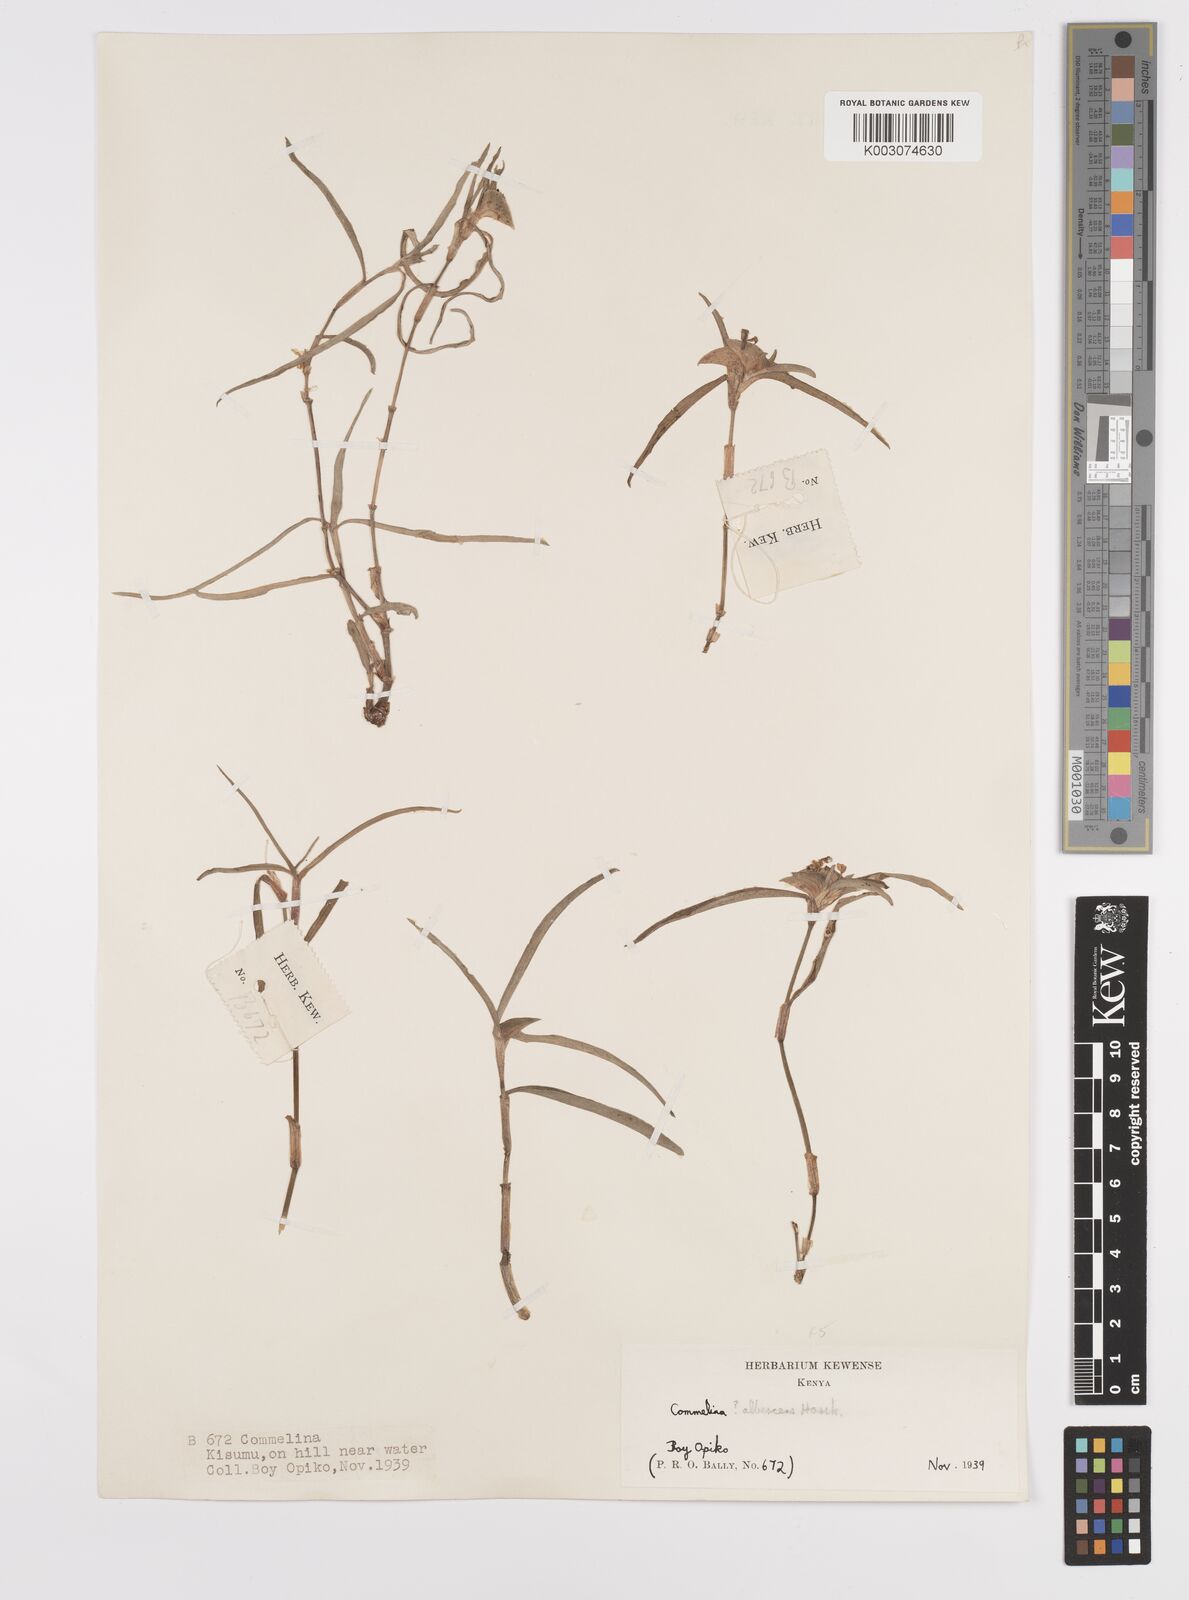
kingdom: Plantae
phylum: Tracheophyta
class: Liliopsida
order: Commelinales
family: Commelinaceae
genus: Commelina
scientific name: Commelina erecta
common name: Blousel blommetjie
